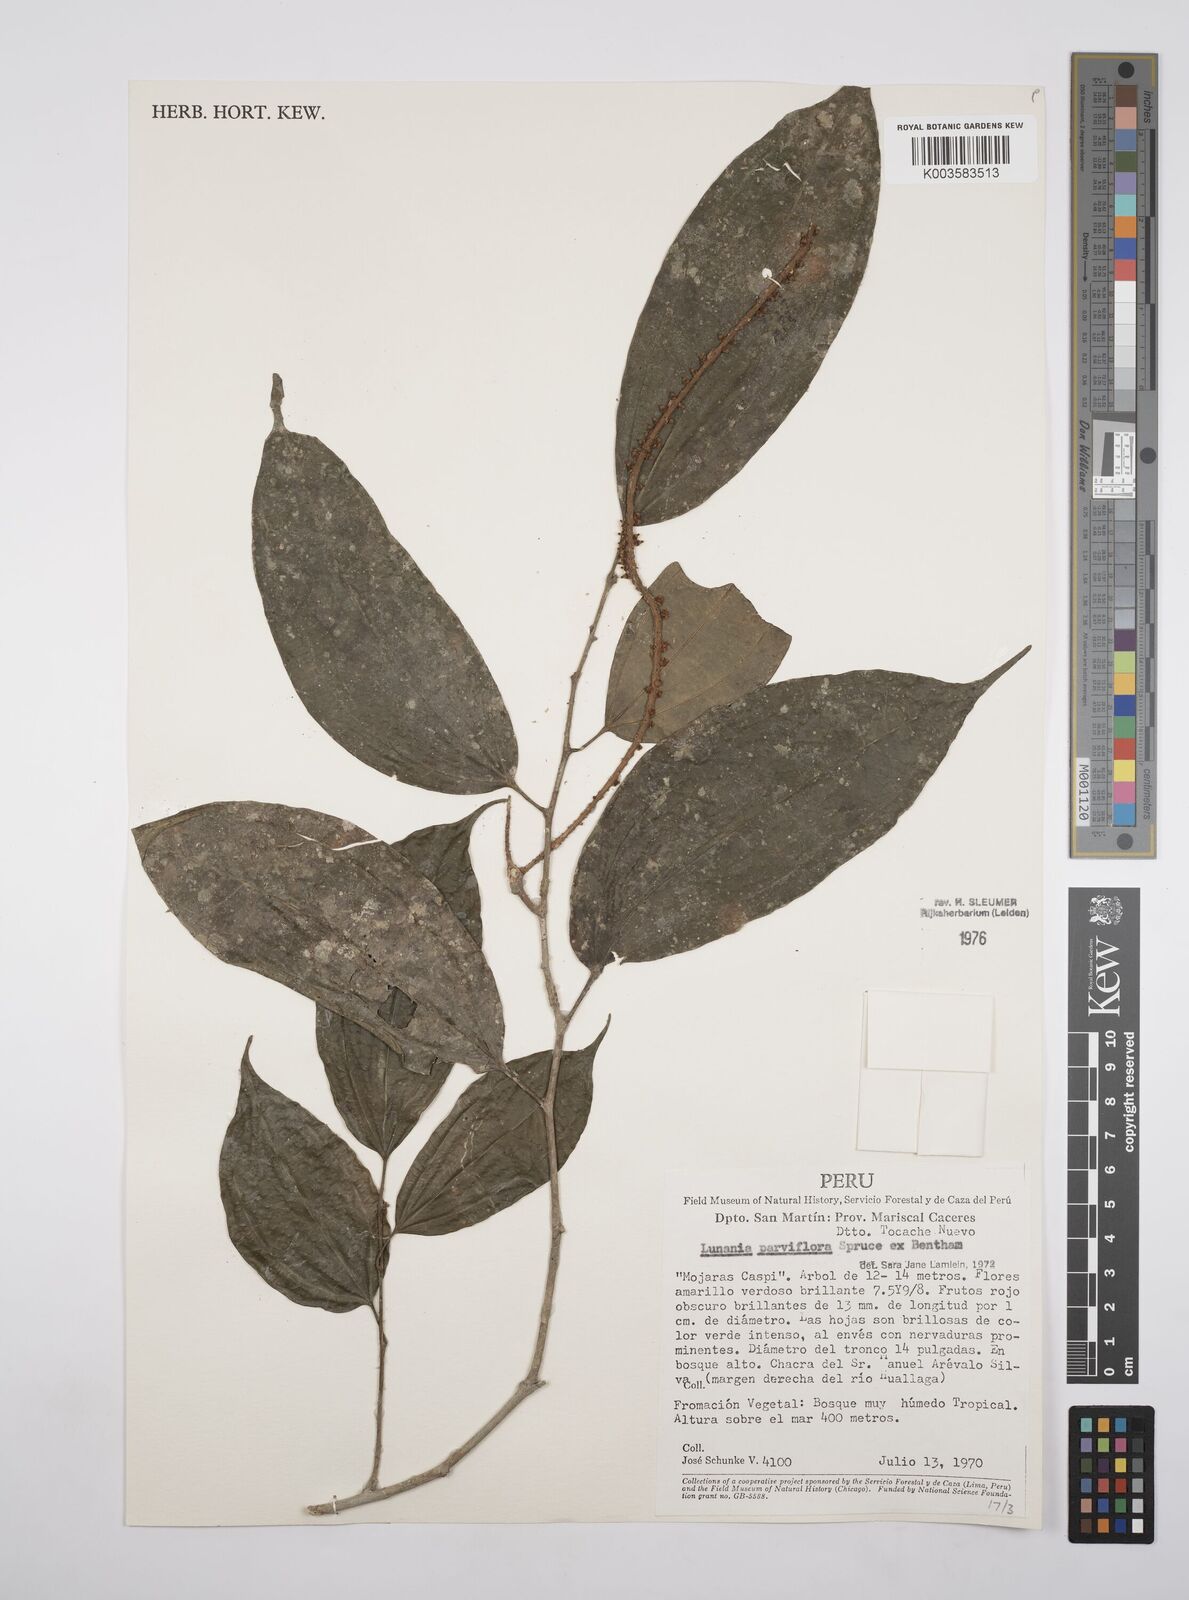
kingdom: Plantae
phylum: Tracheophyta
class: Magnoliopsida
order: Malpighiales
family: Salicaceae
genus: Lunania
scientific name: Lunania parviflora
